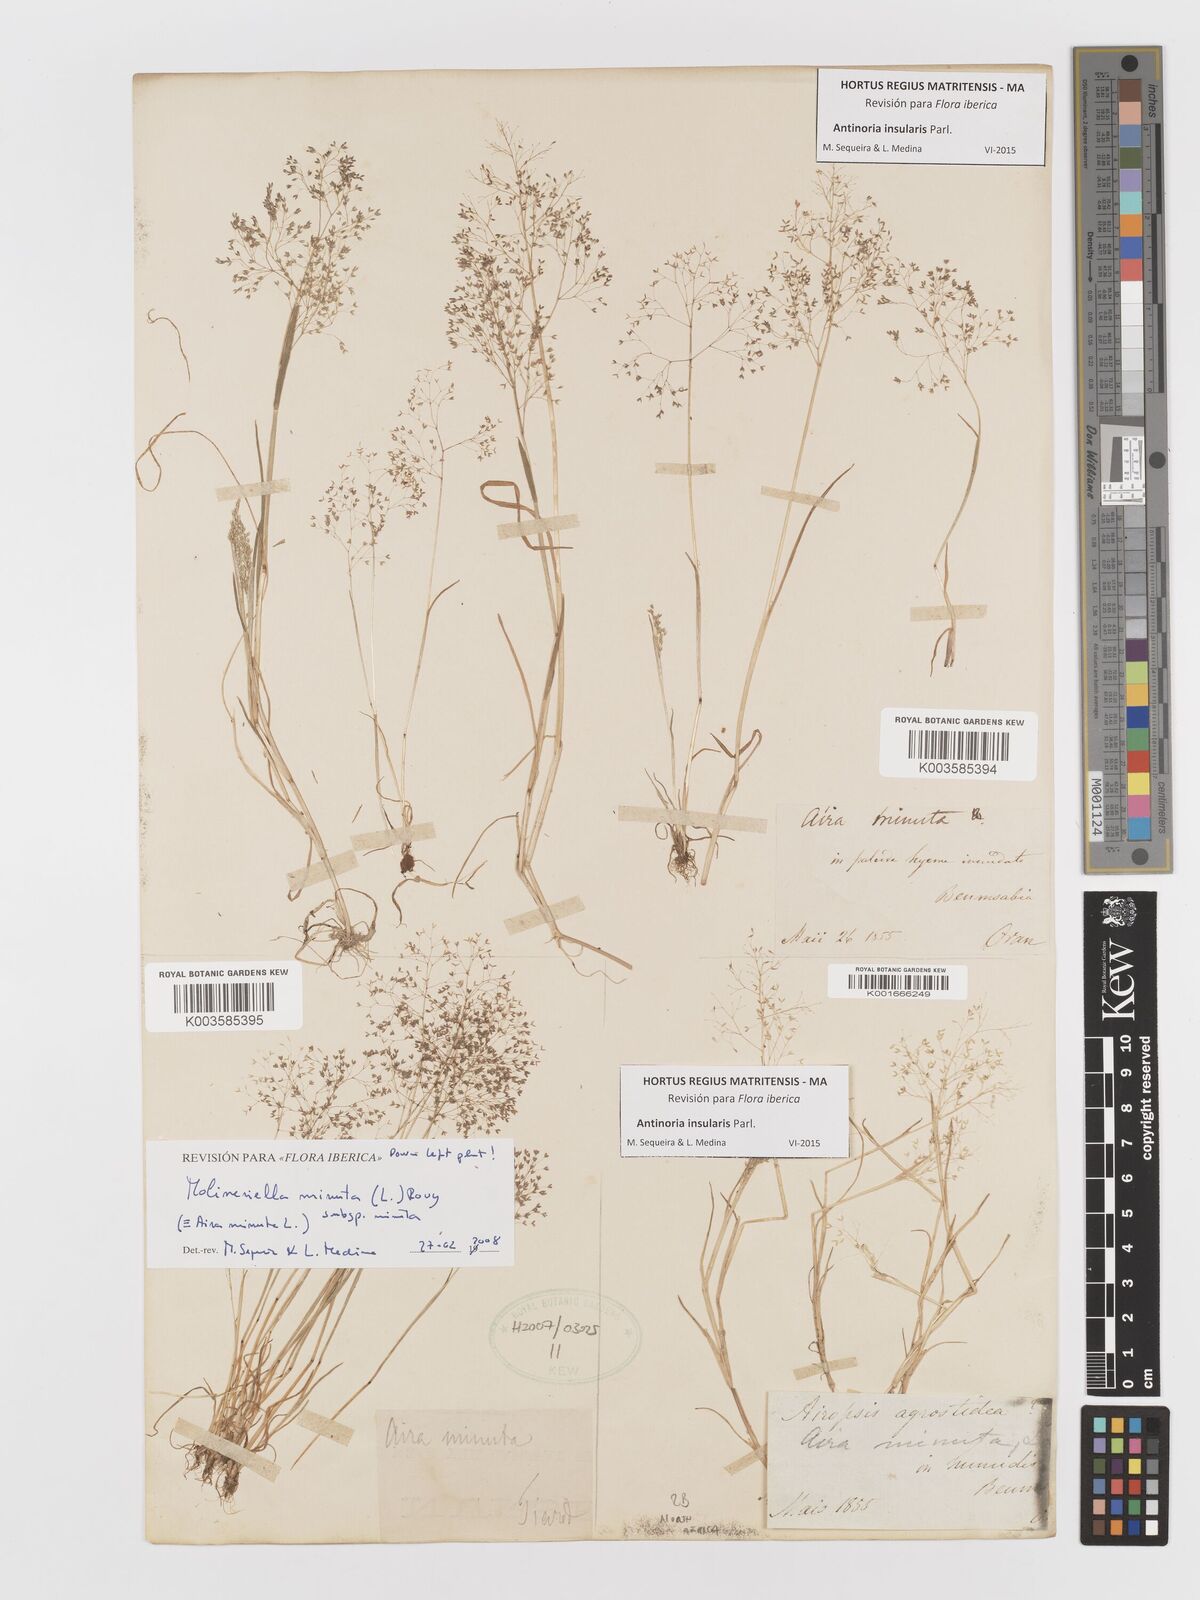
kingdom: Plantae
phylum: Tracheophyta
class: Liliopsida
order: Poales
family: Poaceae
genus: Antinoria
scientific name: Antinoria insularis
